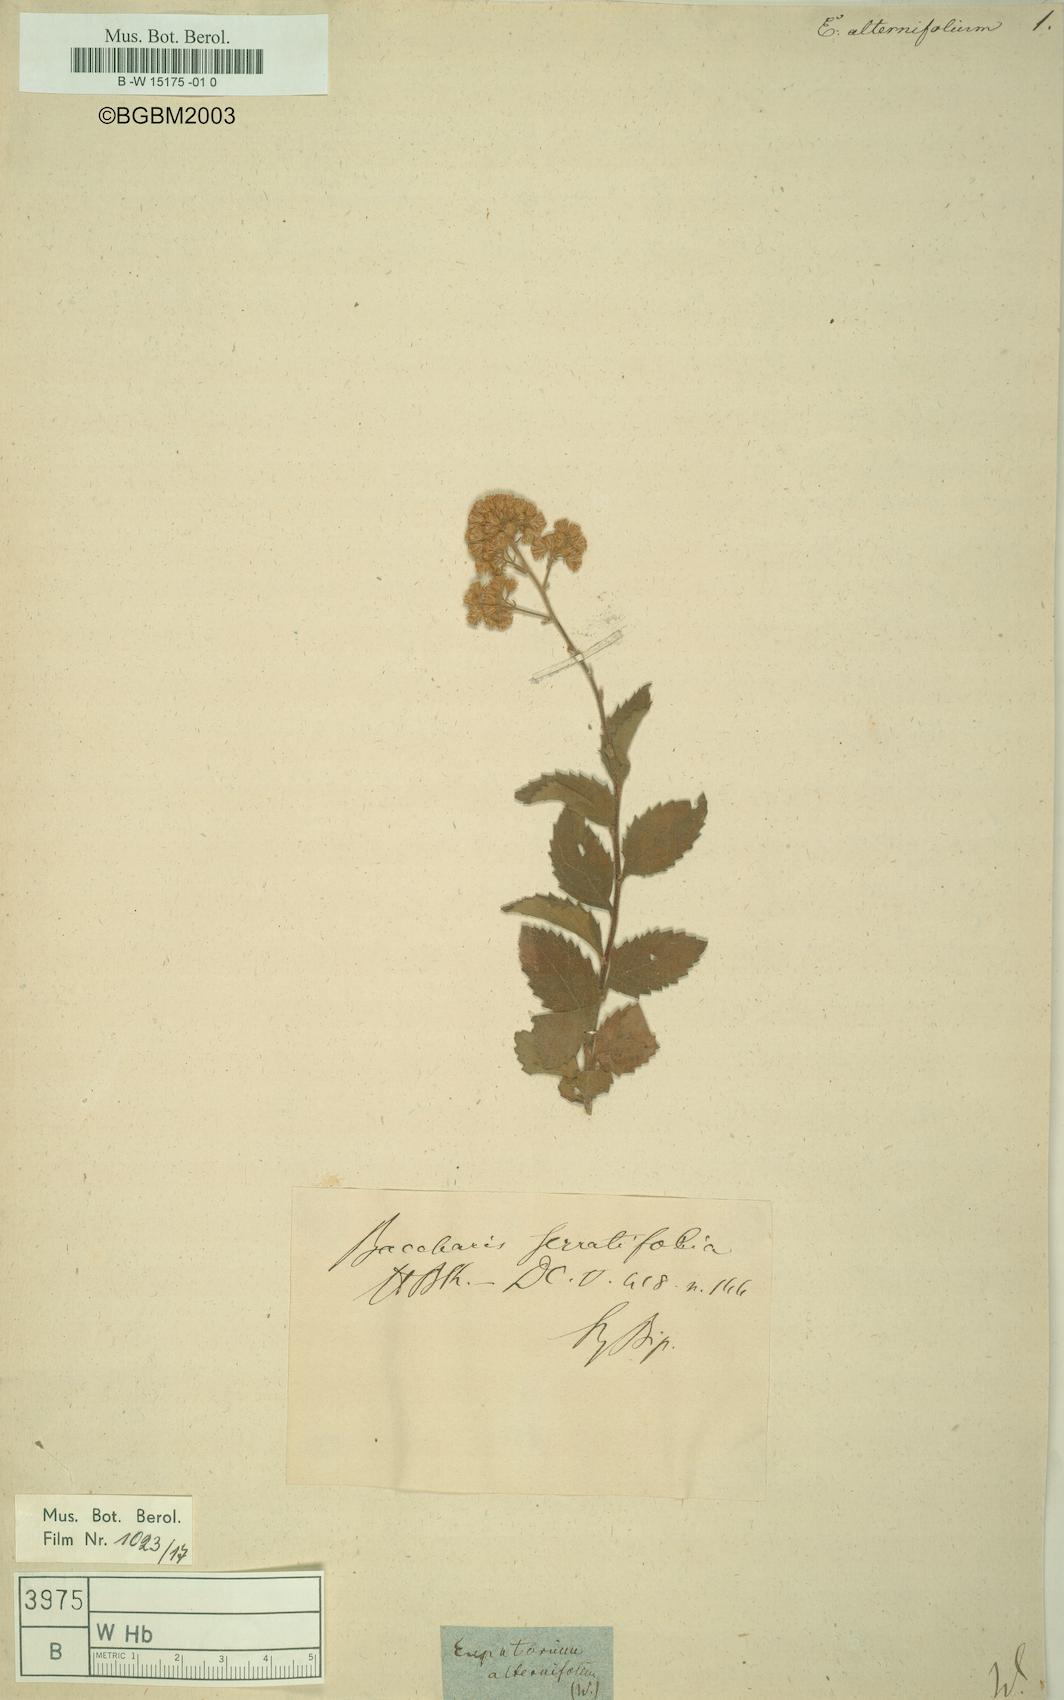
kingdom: Plantae
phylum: Tracheophyta
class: Magnoliopsida
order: Asterales
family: Asteraceae
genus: Eupatorium
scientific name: Eupatorium alternifolium
